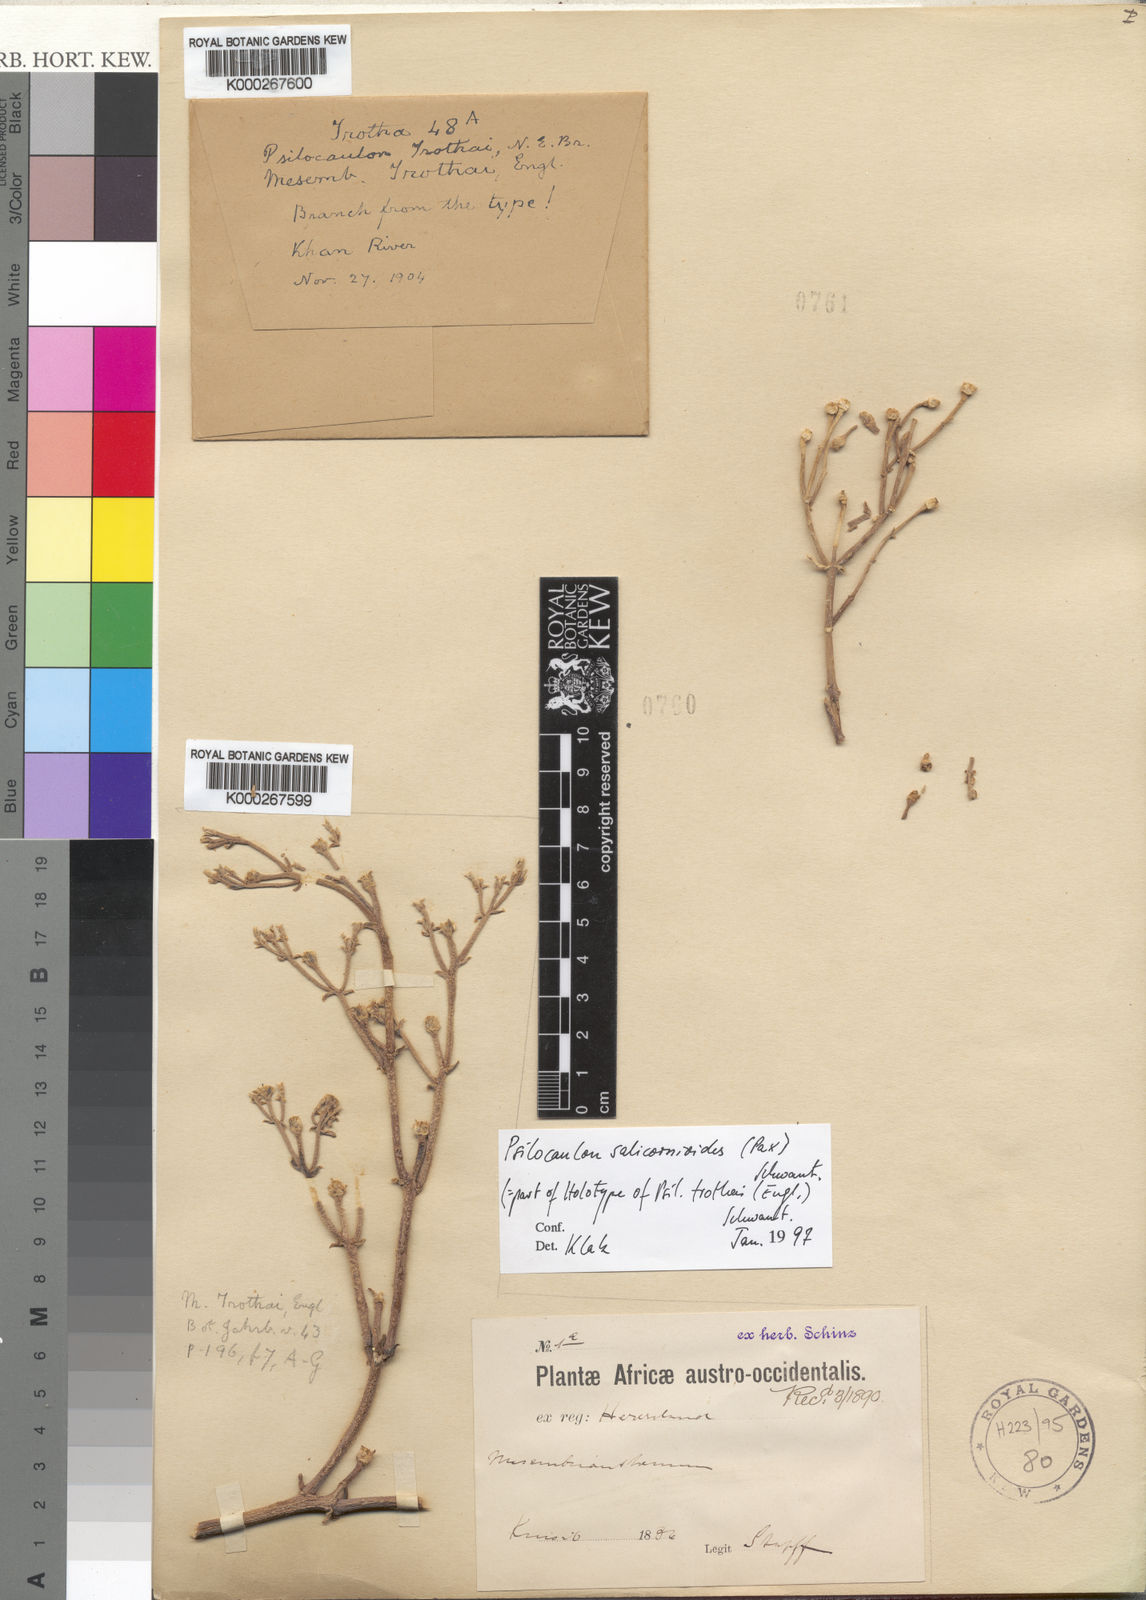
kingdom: Plantae
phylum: Tracheophyta
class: Magnoliopsida
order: Caryophyllales
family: Aizoaceae
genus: Mesembryanthemum
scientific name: Mesembryanthemum
